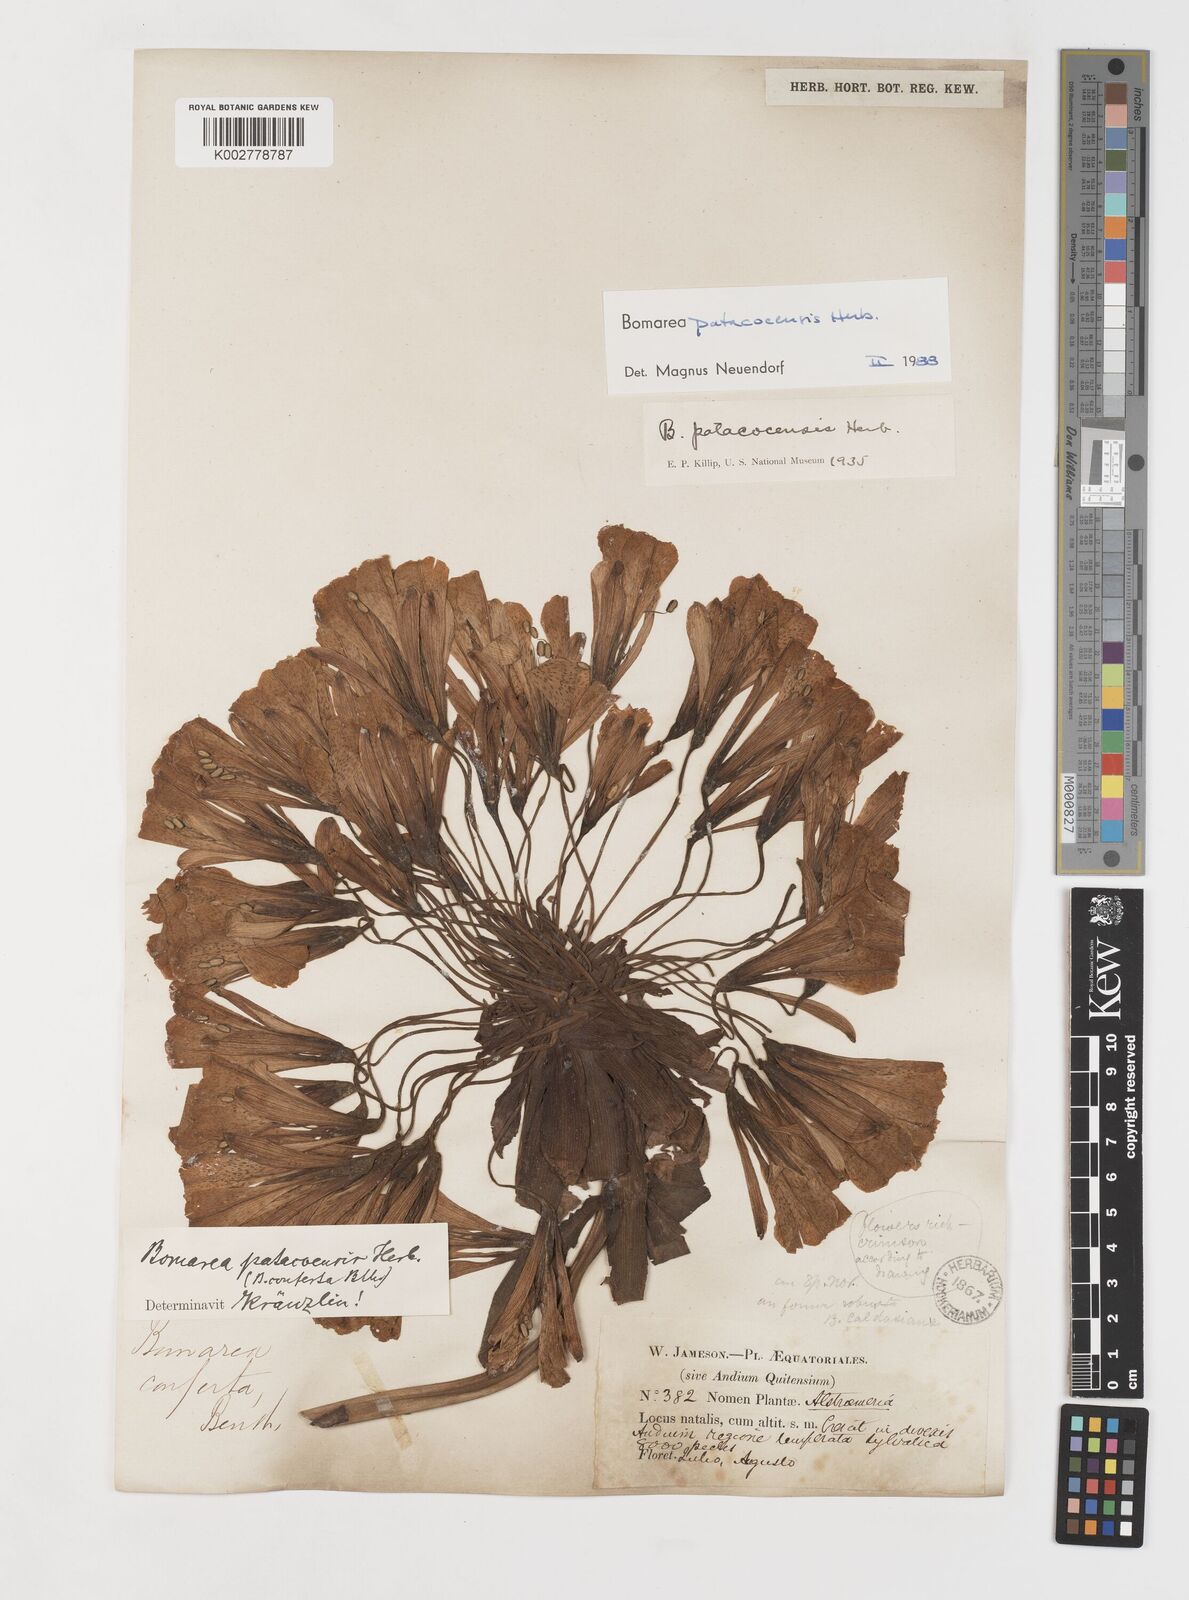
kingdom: Plantae
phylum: Tracheophyta
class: Liliopsida
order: Liliales
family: Alstroemeriaceae
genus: Bomarea
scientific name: Bomarea patacocensis
